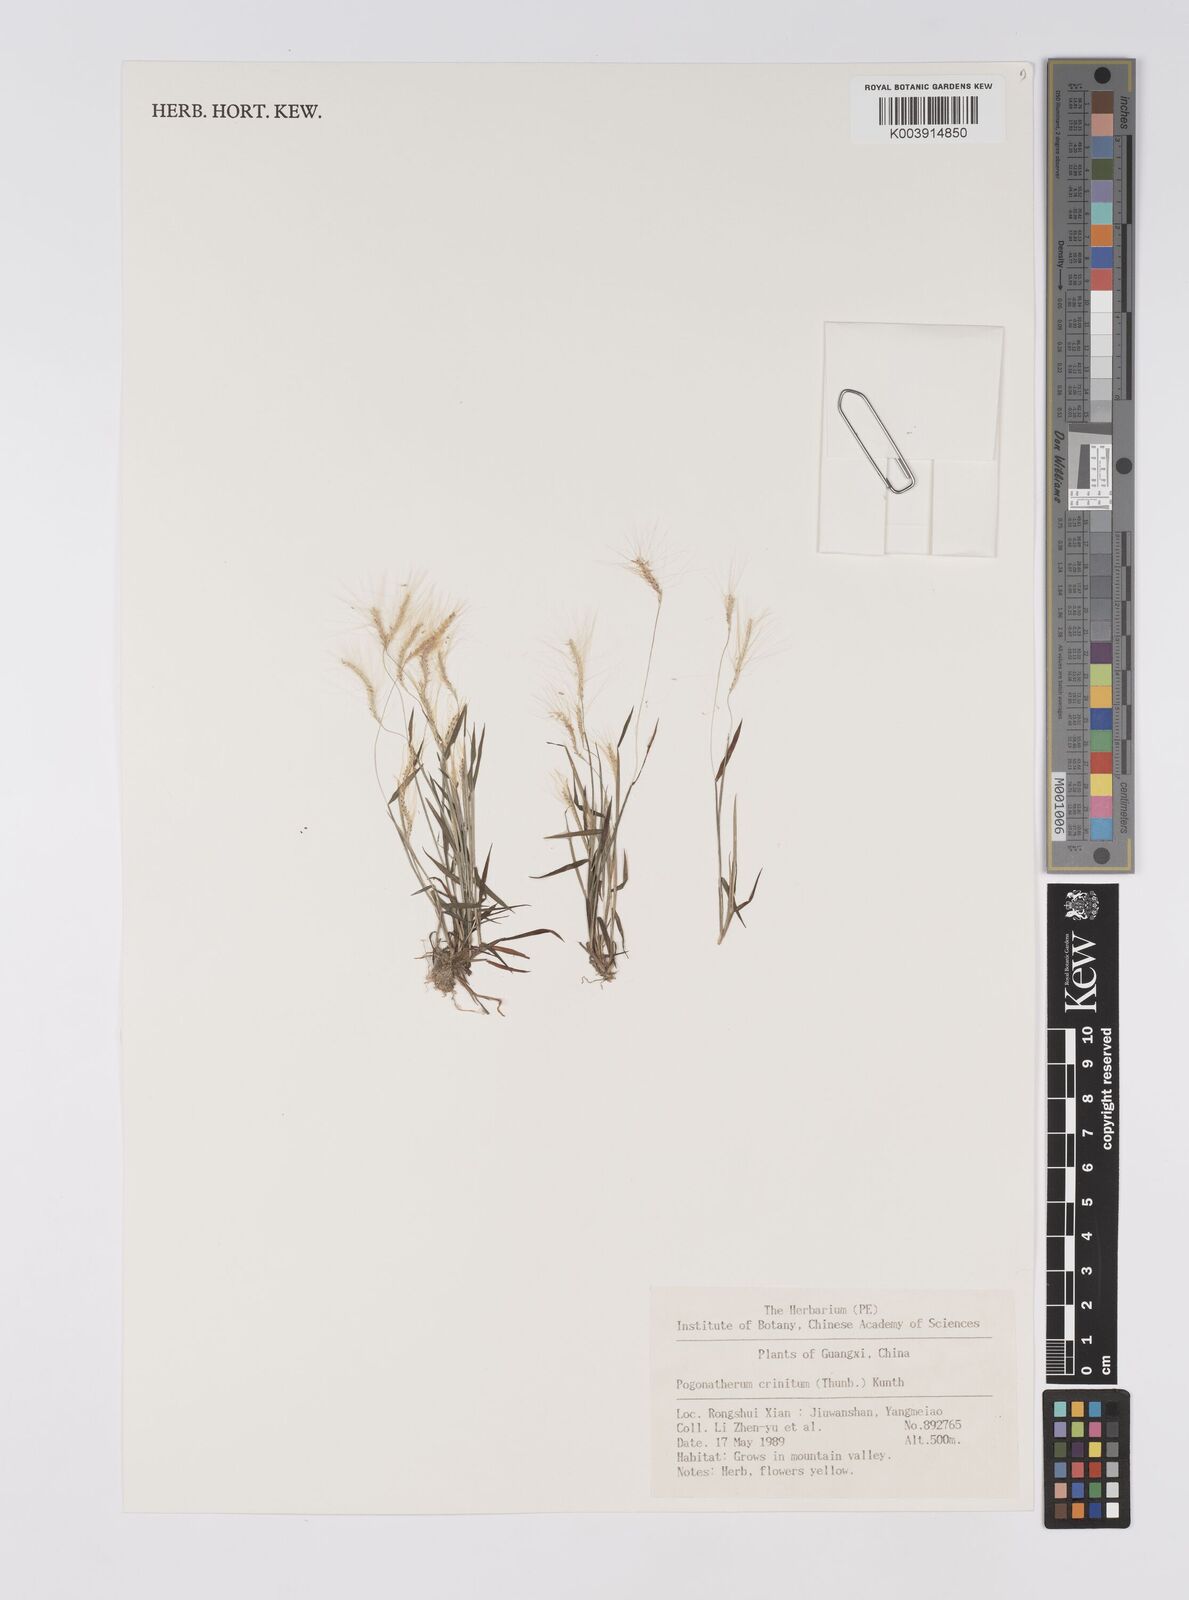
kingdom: Plantae
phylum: Tracheophyta
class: Liliopsida
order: Poales
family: Poaceae
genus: Pogonatherum
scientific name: Pogonatherum crinitum
